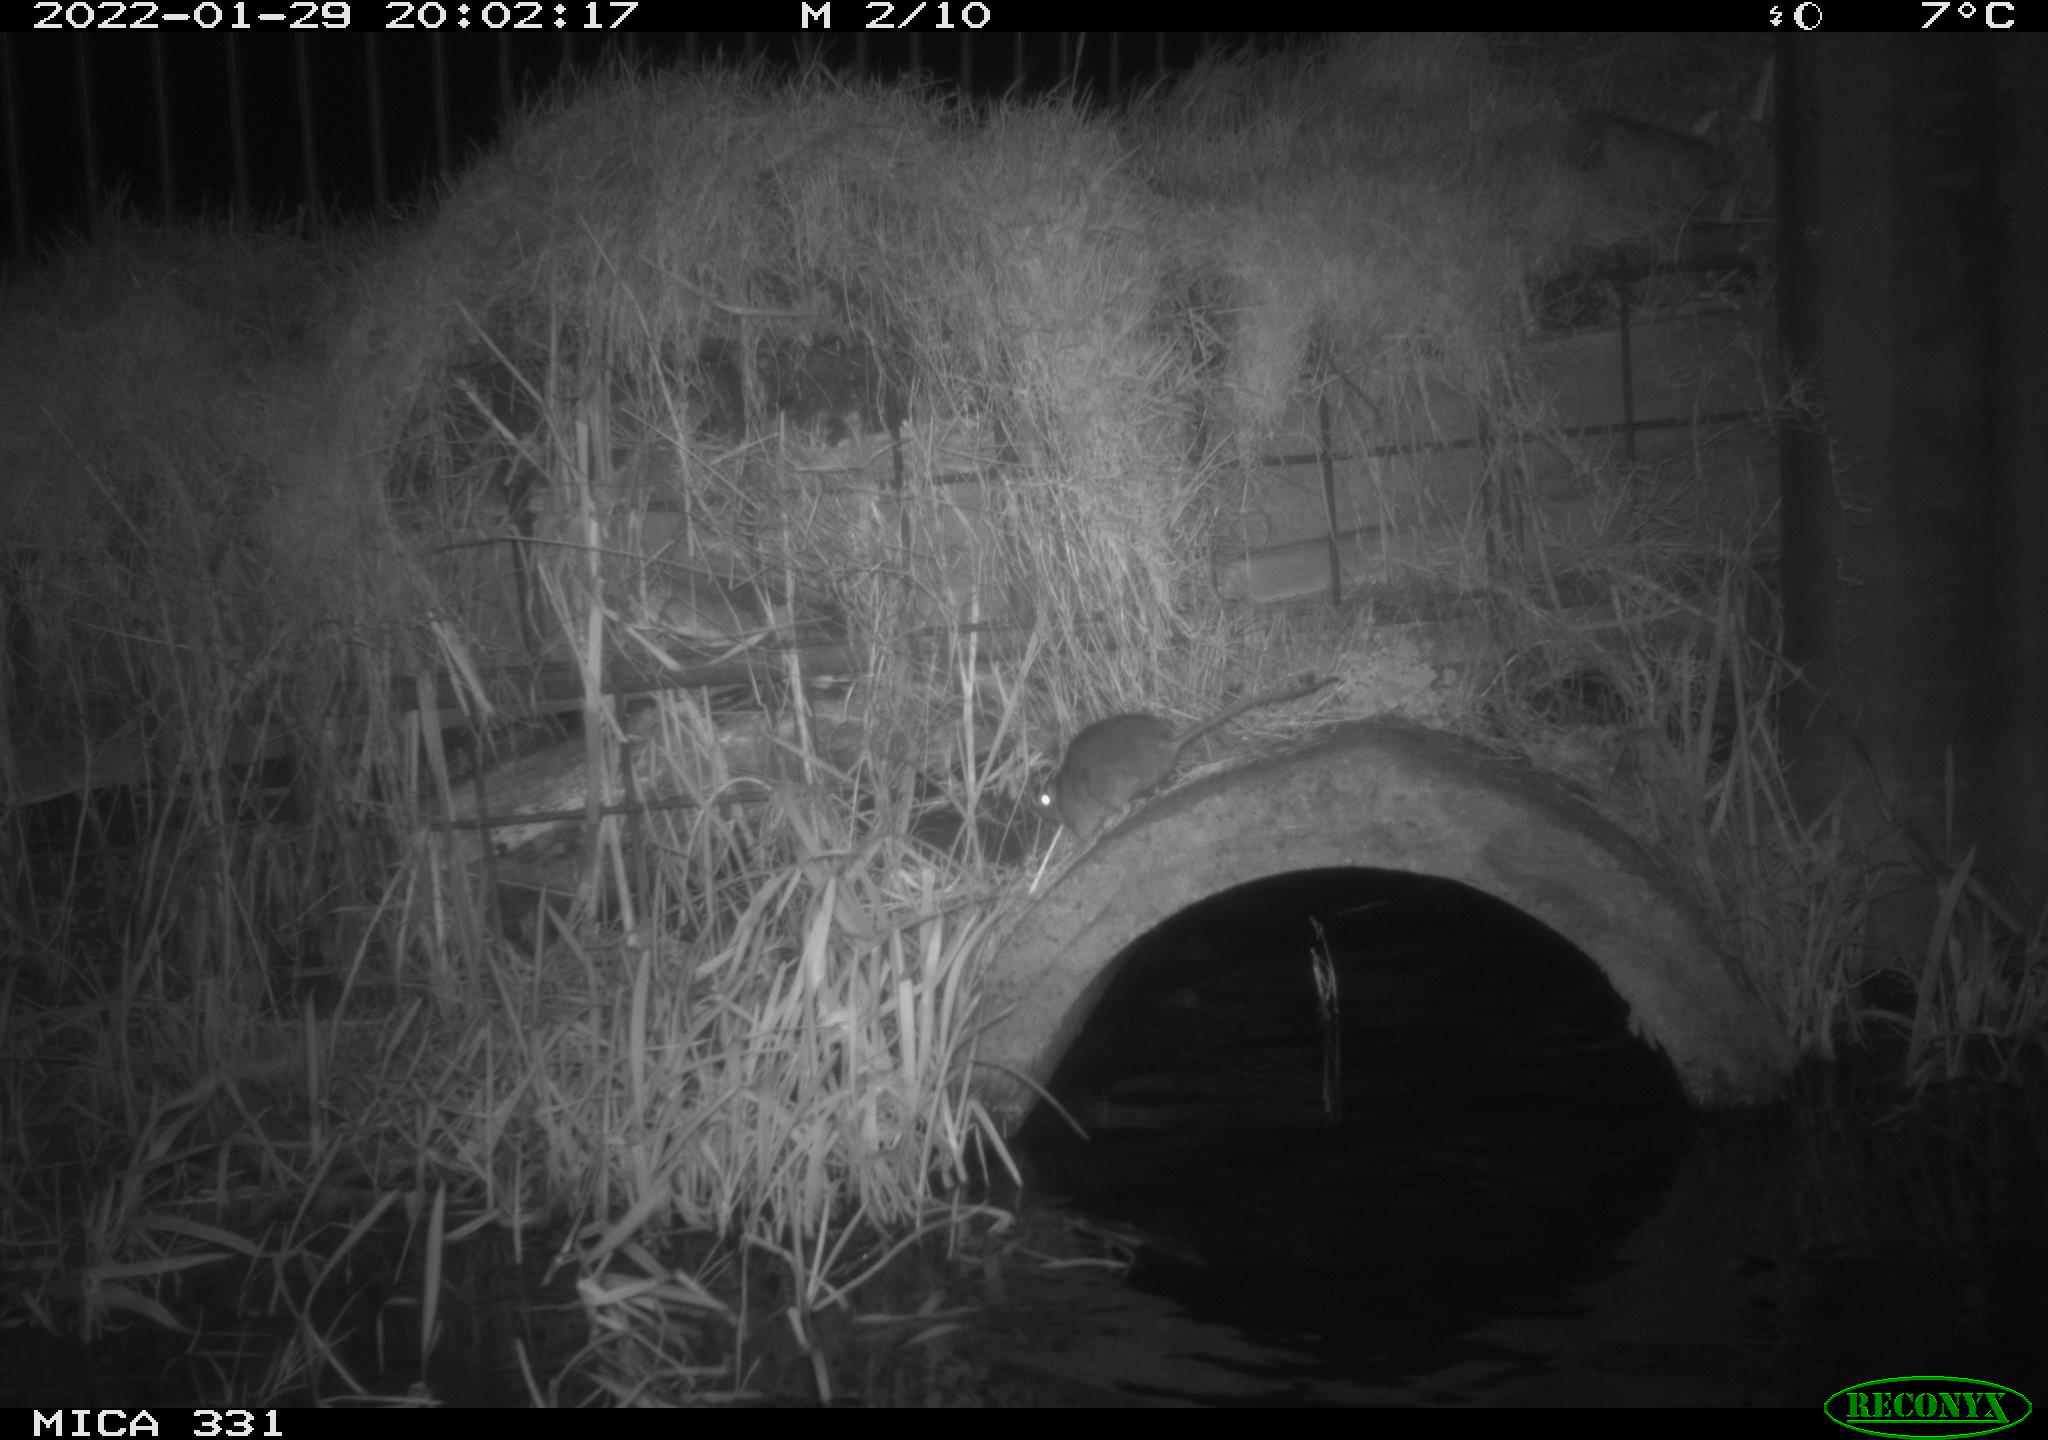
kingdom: Animalia
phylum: Chordata
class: Mammalia
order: Rodentia
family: Muridae
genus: Rattus
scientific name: Rattus norvegicus
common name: Brown rat
